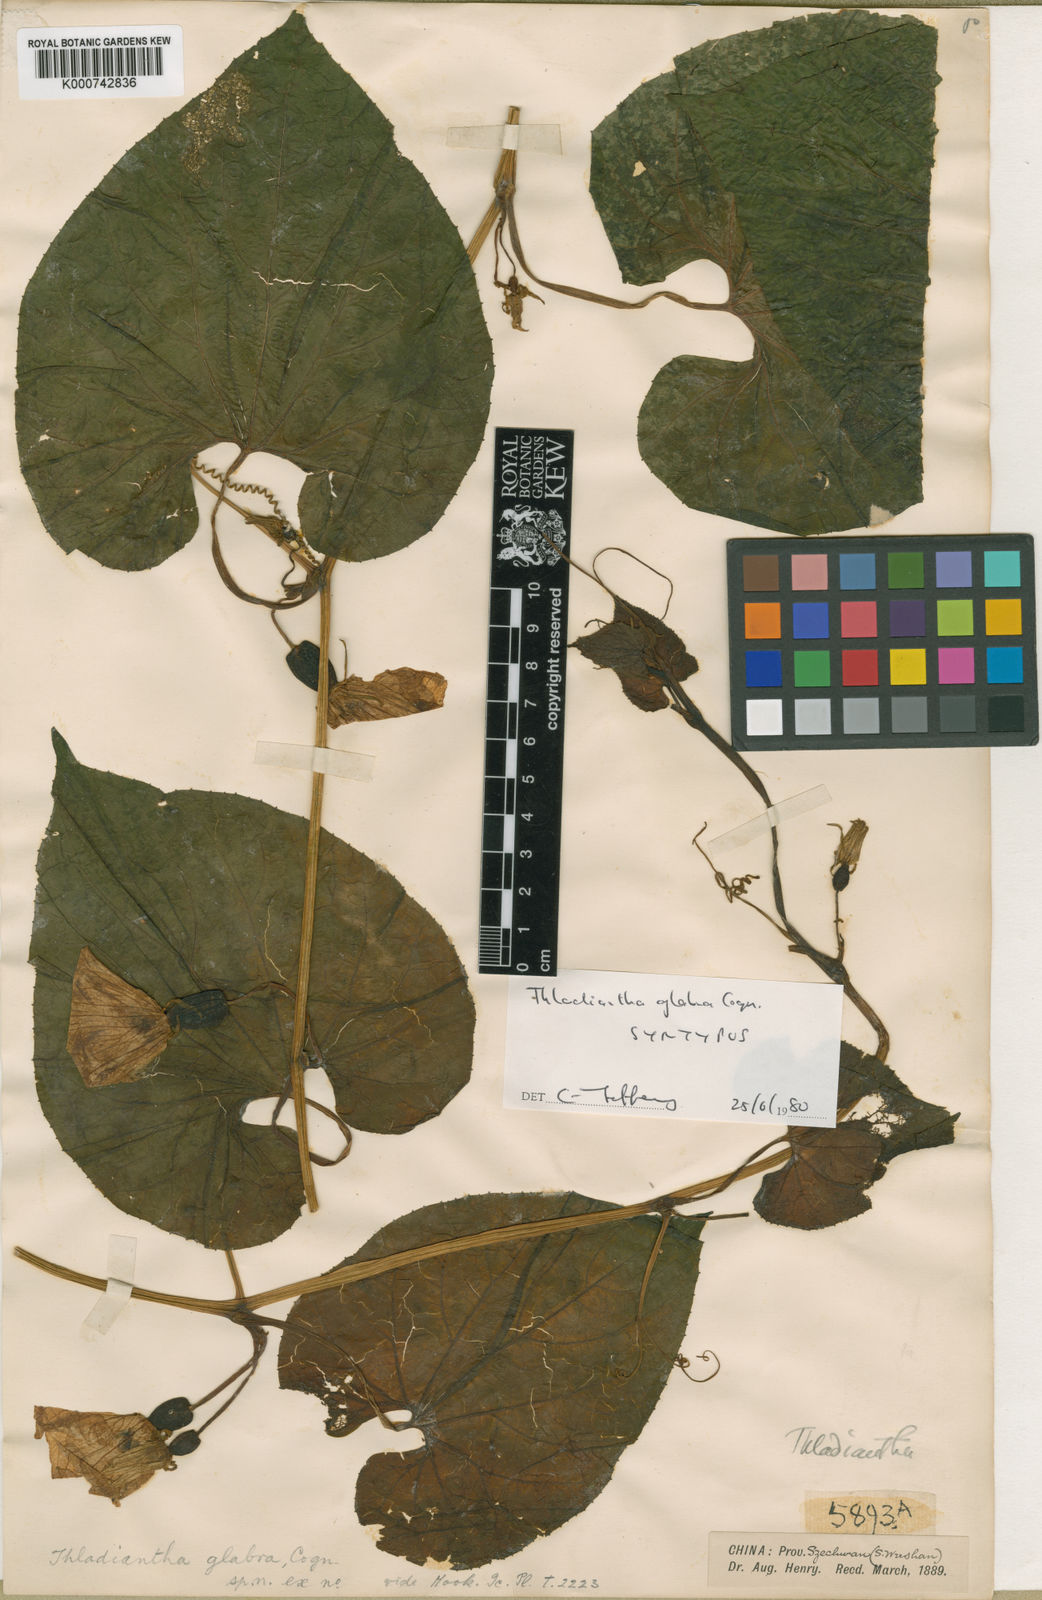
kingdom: Plantae
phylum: Tracheophyta
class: Magnoliopsida
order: Cucurbitales
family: Cucurbitaceae
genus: Thladiantha
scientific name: Thladiantha
